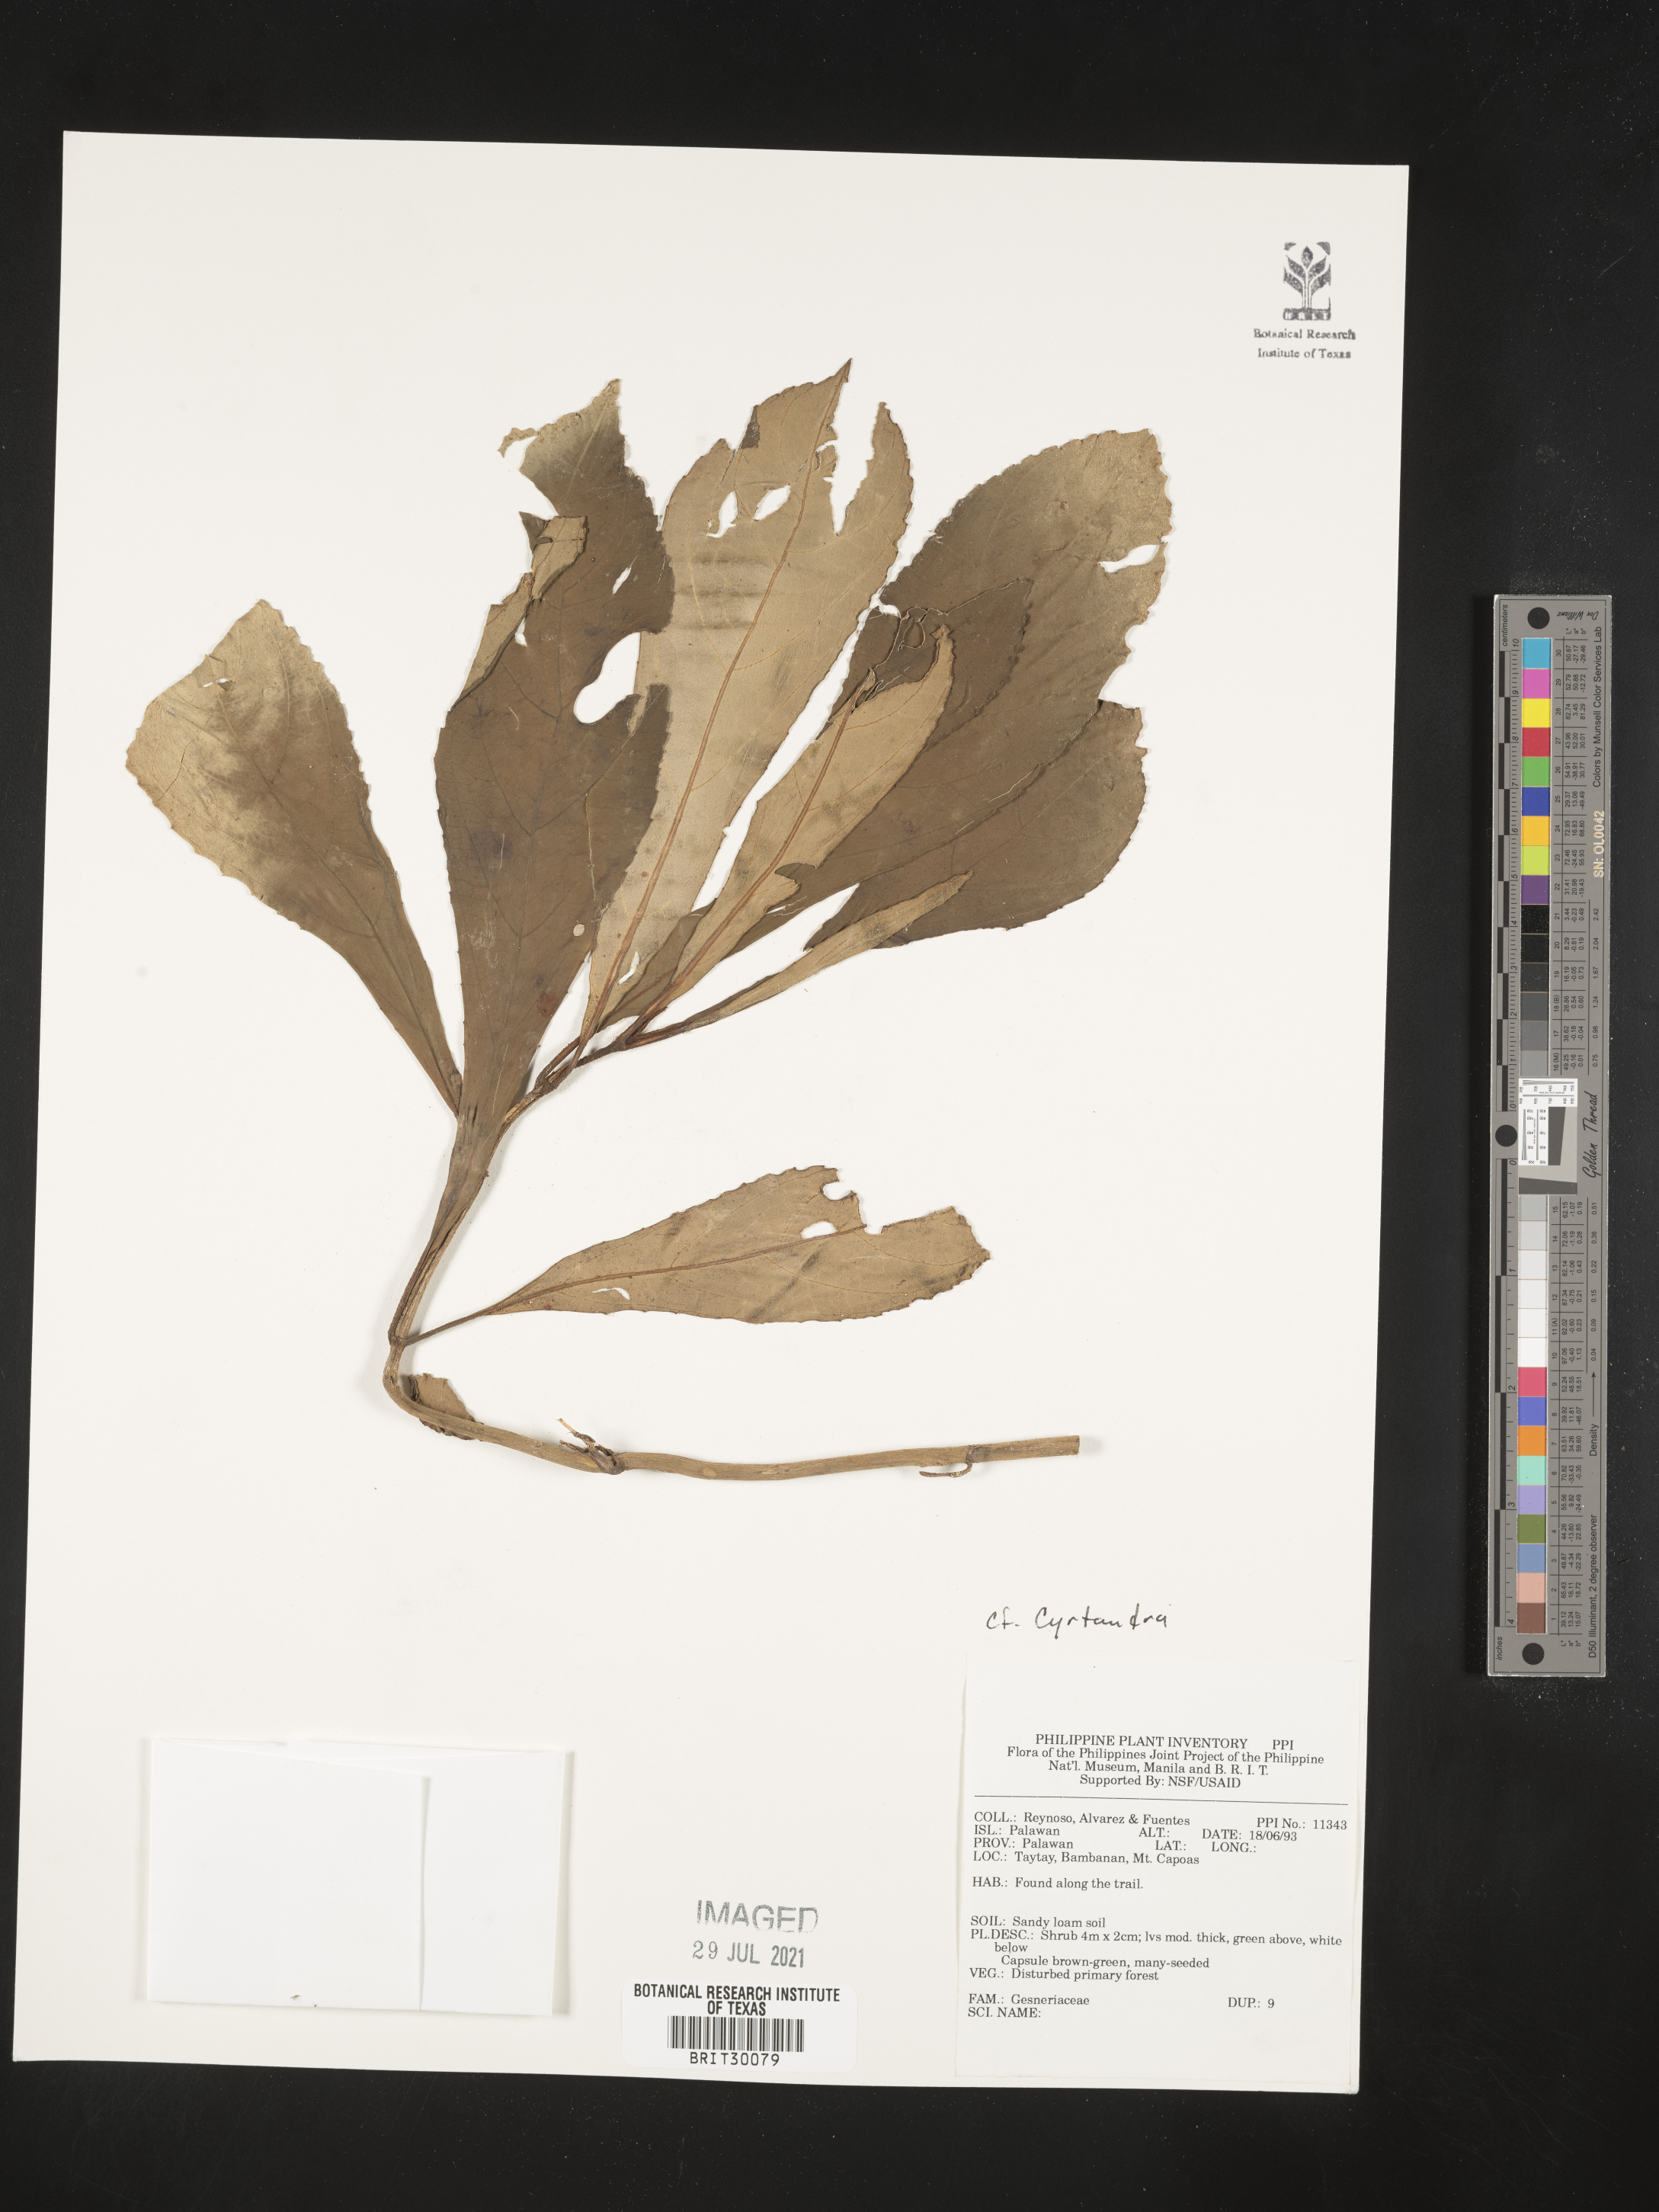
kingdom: Plantae
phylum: Tracheophyta
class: Magnoliopsida
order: Lamiales
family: Gesneriaceae
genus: Cyrtandra
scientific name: Cyrtandra
